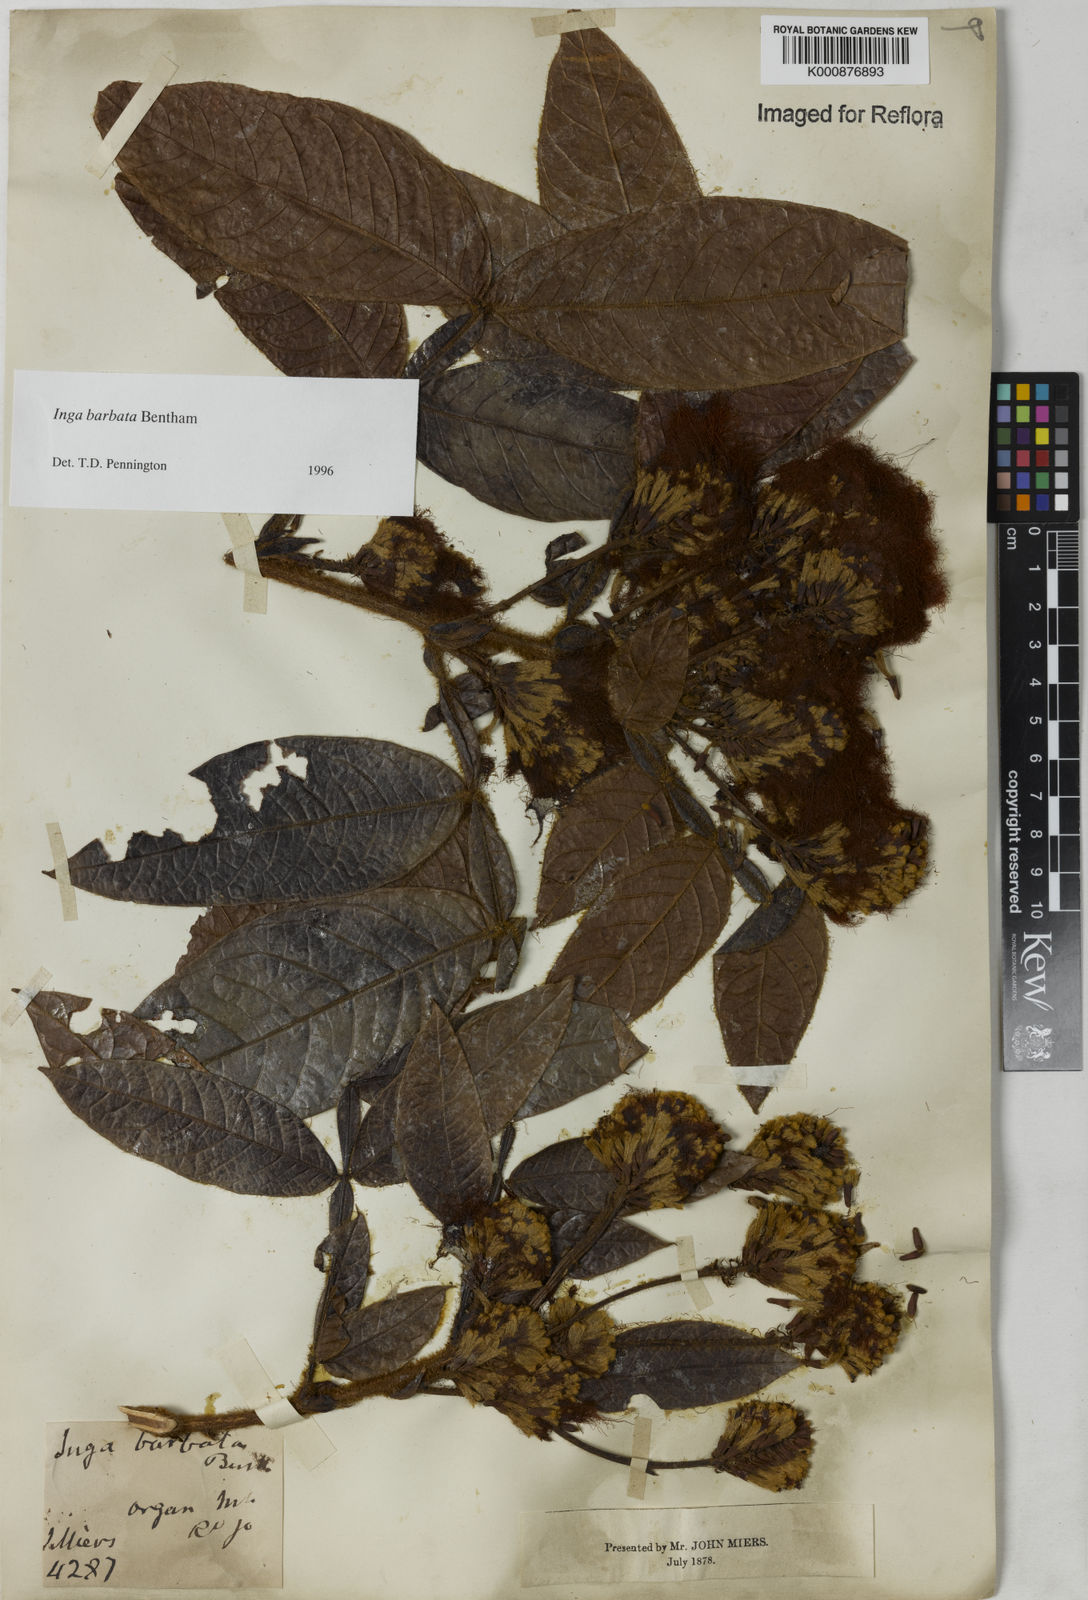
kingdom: Plantae
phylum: Tracheophyta
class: Magnoliopsida
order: Fabales
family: Fabaceae
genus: Inga
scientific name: Inga barbata
